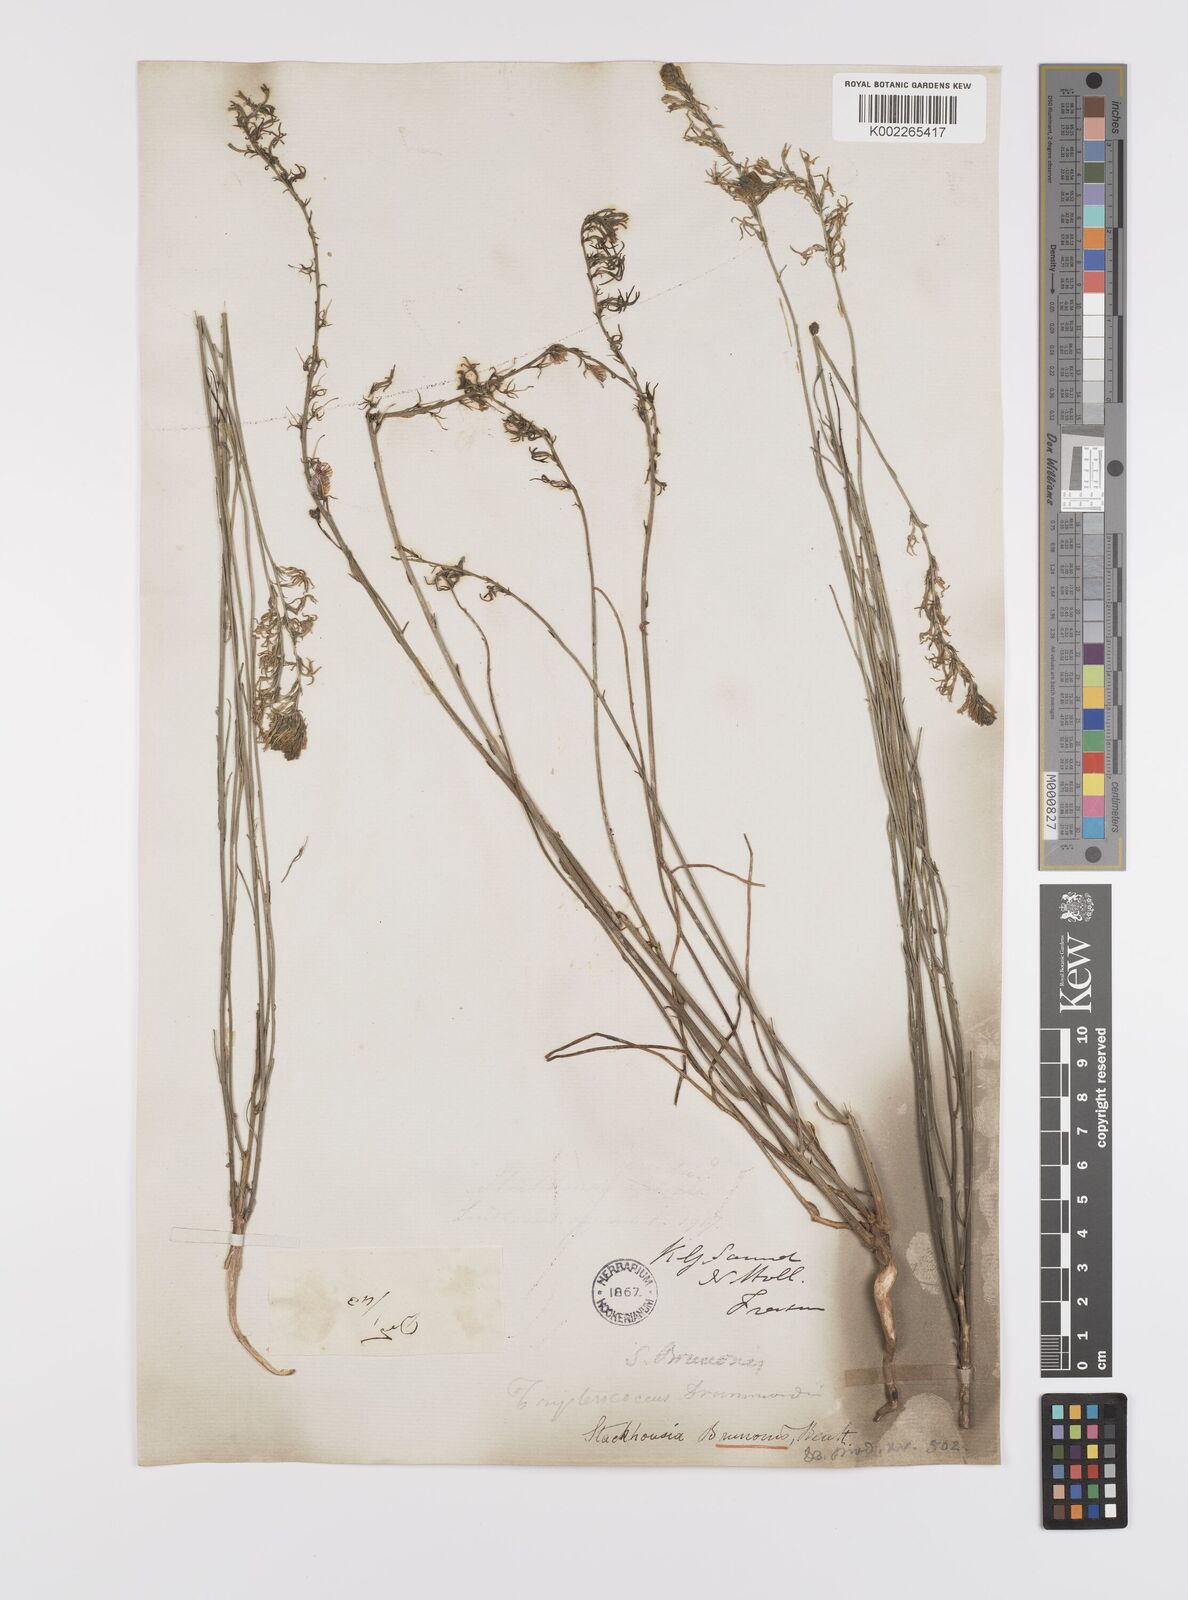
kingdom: Plantae
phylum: Tracheophyta
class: Magnoliopsida
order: Celastrales
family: Celastraceae
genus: Tripterococcus
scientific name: Tripterococcus brunonis
